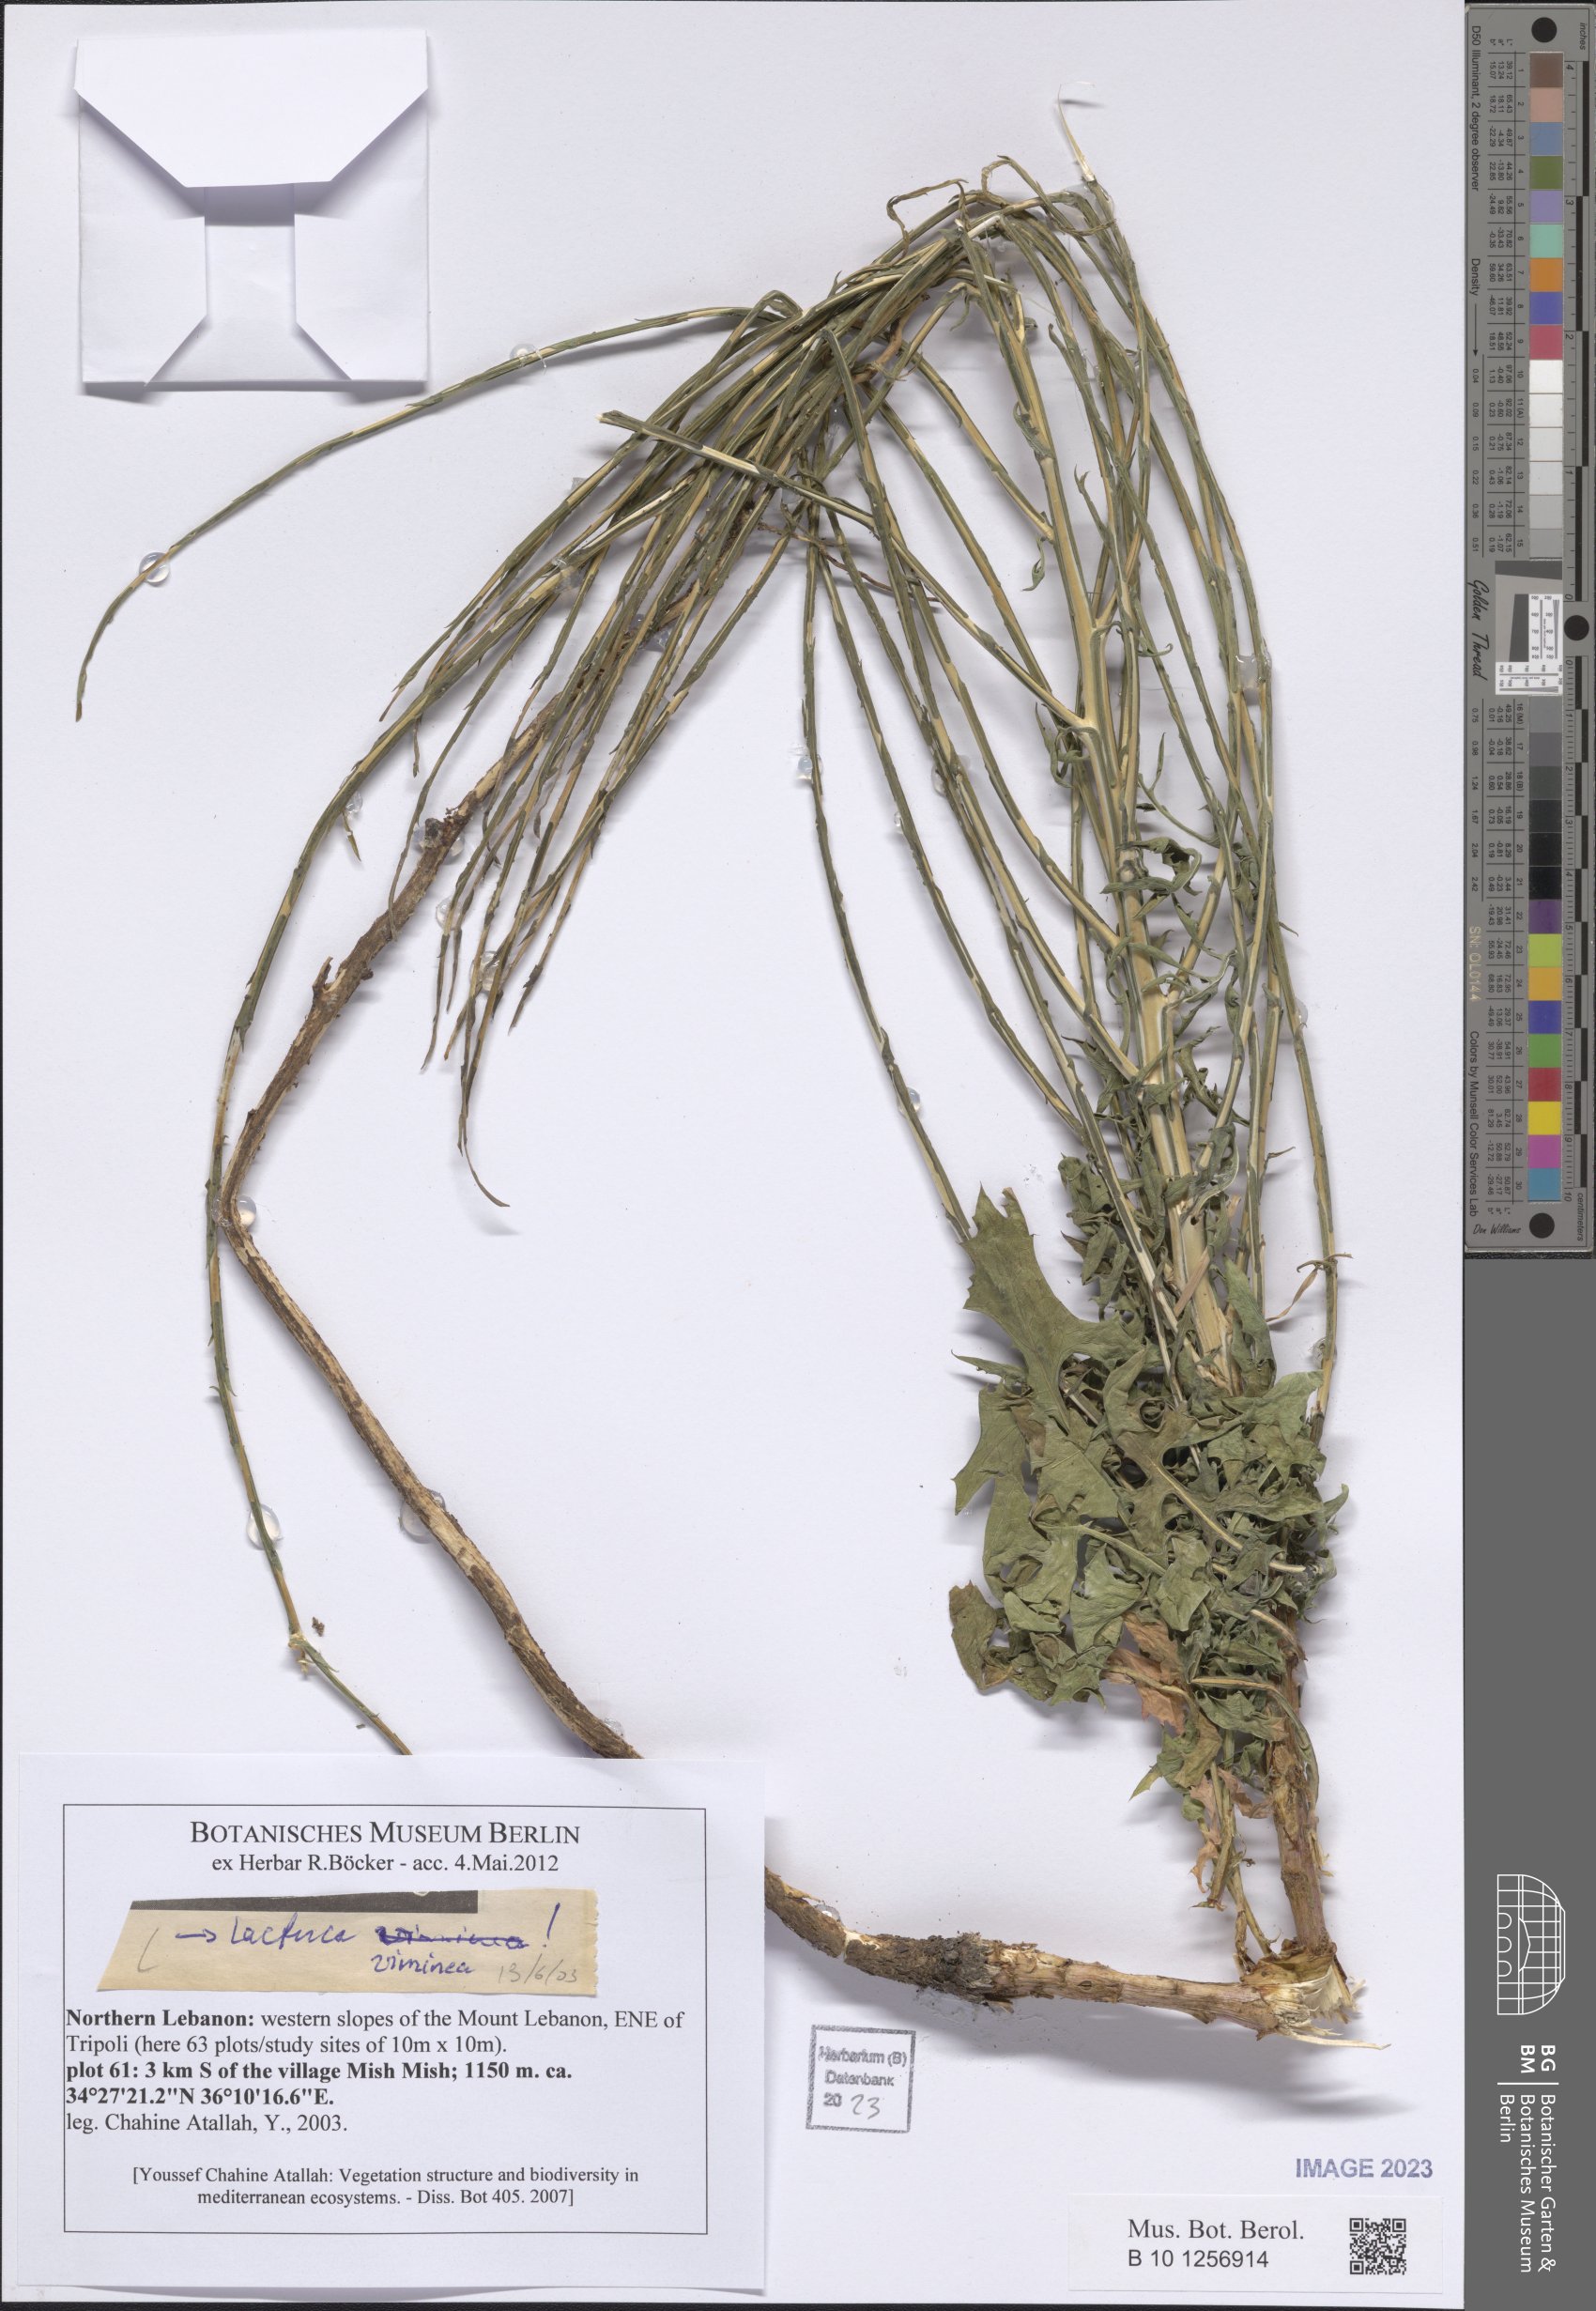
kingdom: Plantae
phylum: Tracheophyta
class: Magnoliopsida
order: Asterales
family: Asteraceae
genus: Lactuca
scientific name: Lactuca viminea
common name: Pliant lettuce
